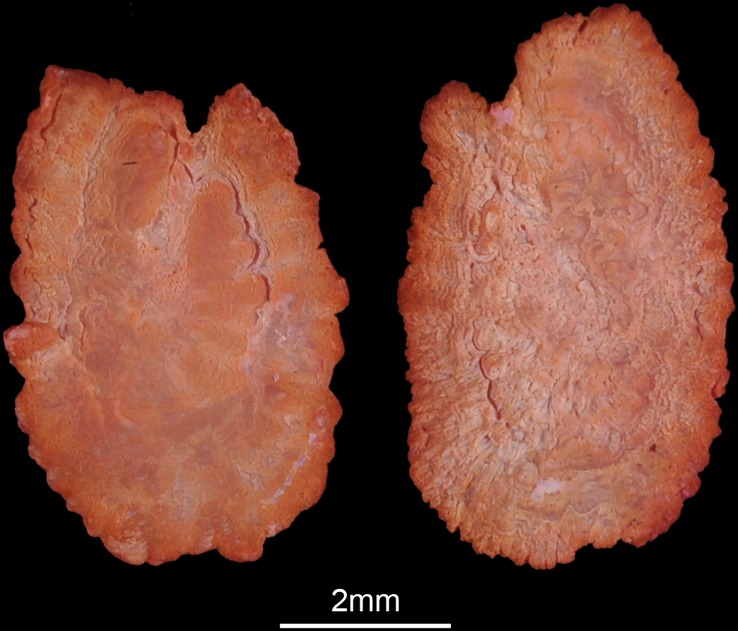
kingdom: Animalia
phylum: Chordata
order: Perciformes
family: Cichlidae
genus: Serranochromis
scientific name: Serranochromis robustus
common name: Yellow-belly bream
